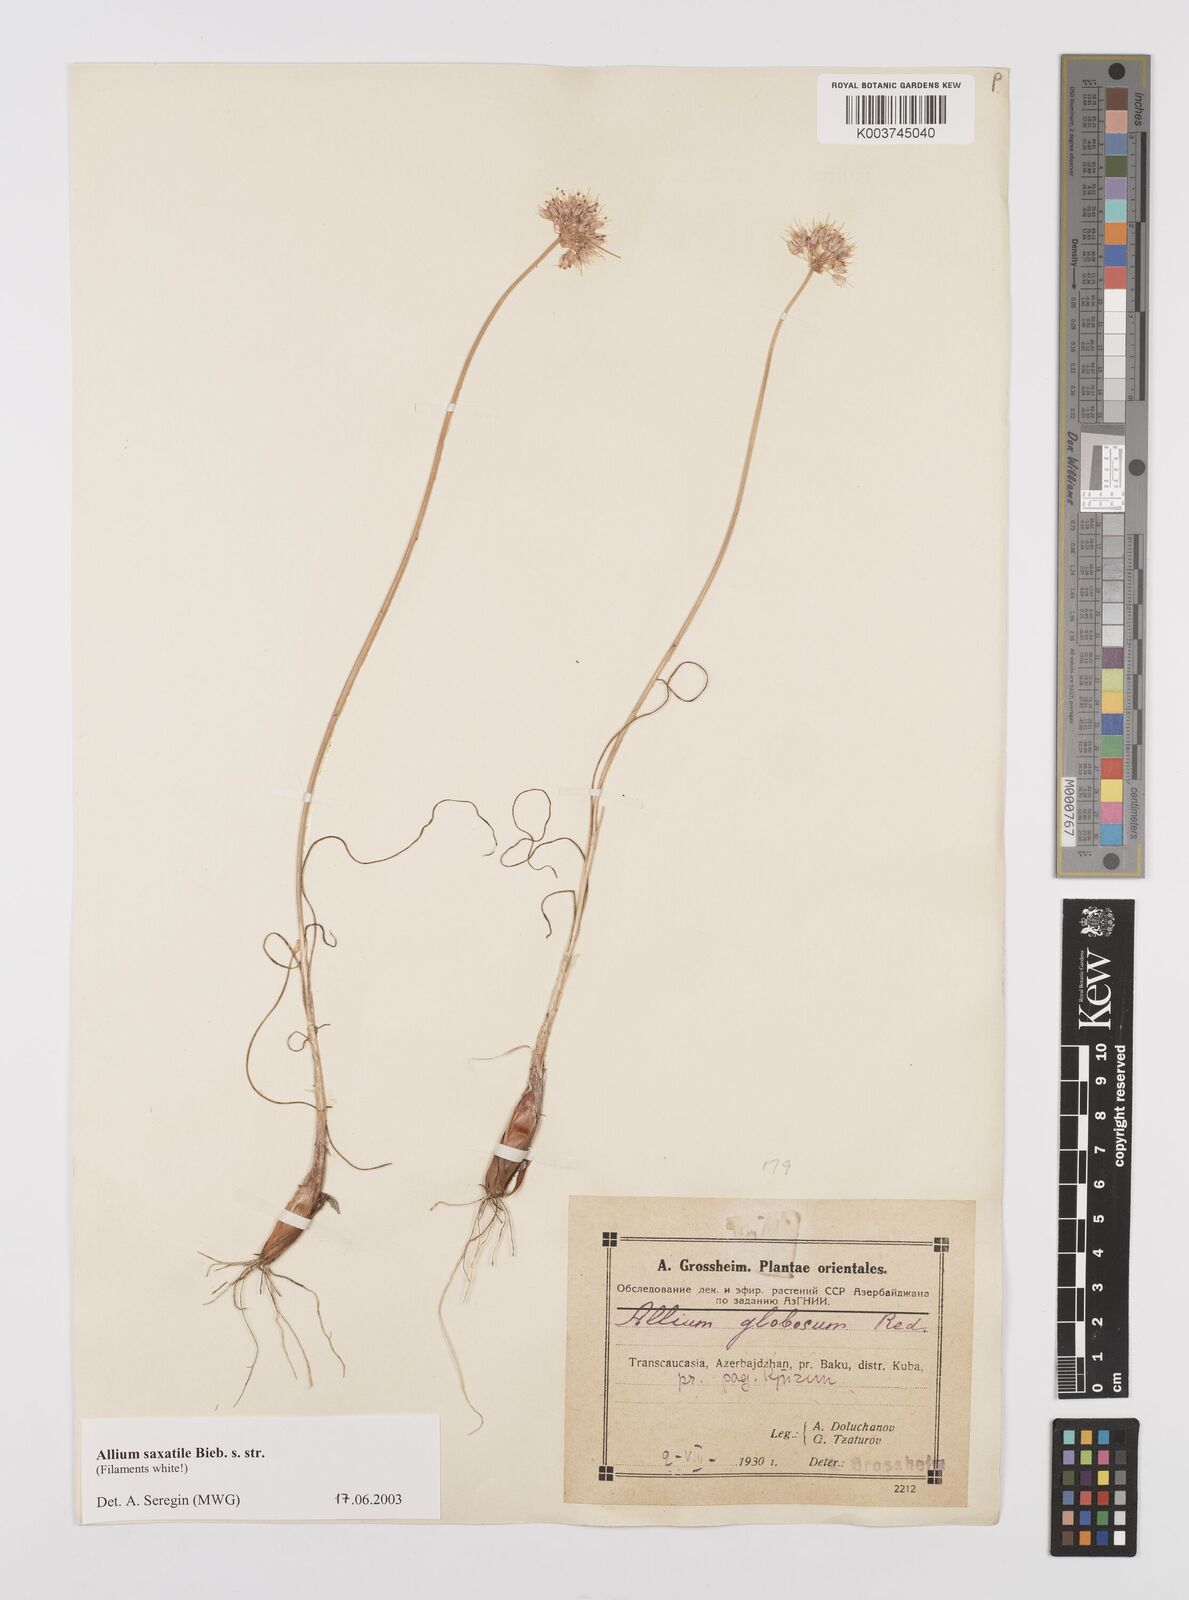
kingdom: Plantae
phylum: Tracheophyta
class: Liliopsida
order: Asparagales
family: Amaryllidaceae
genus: Allium
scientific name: Allium saxatile
